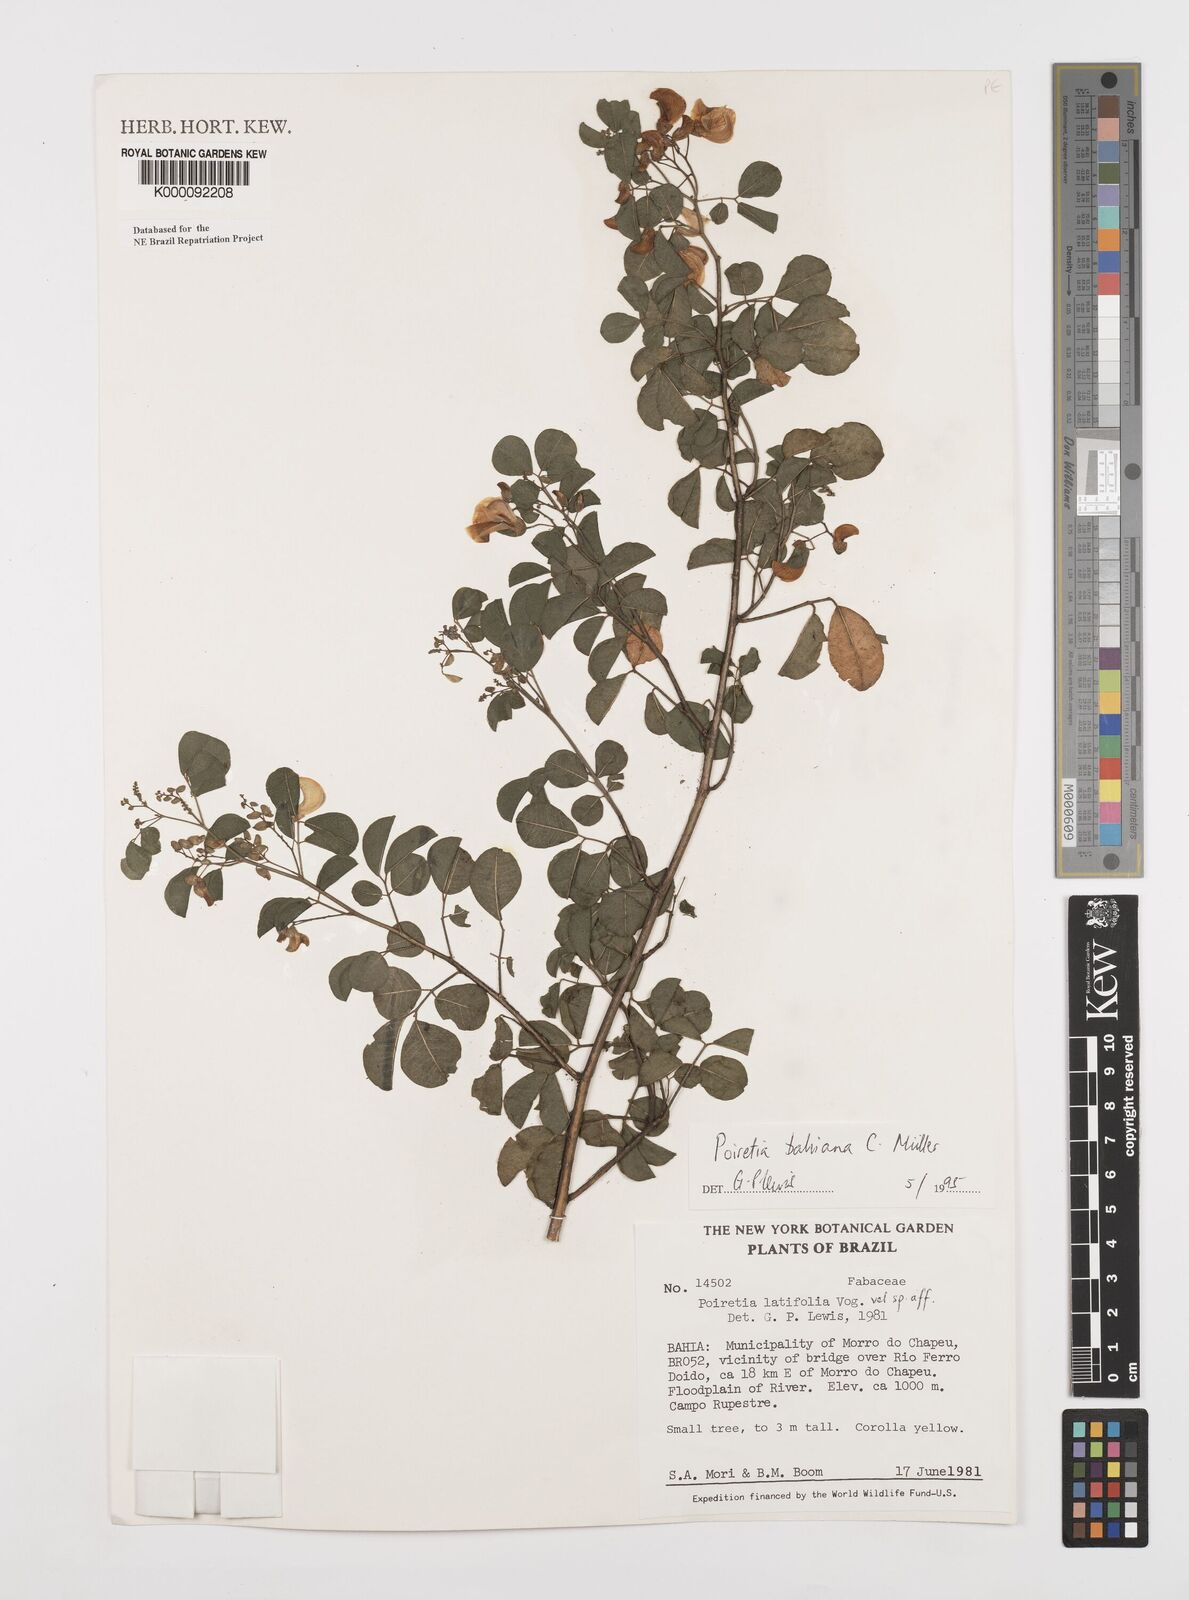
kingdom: Plantae
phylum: Tracheophyta
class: Magnoliopsida
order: Fabales
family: Fabaceae
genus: Poiretia
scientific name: Poiretia
